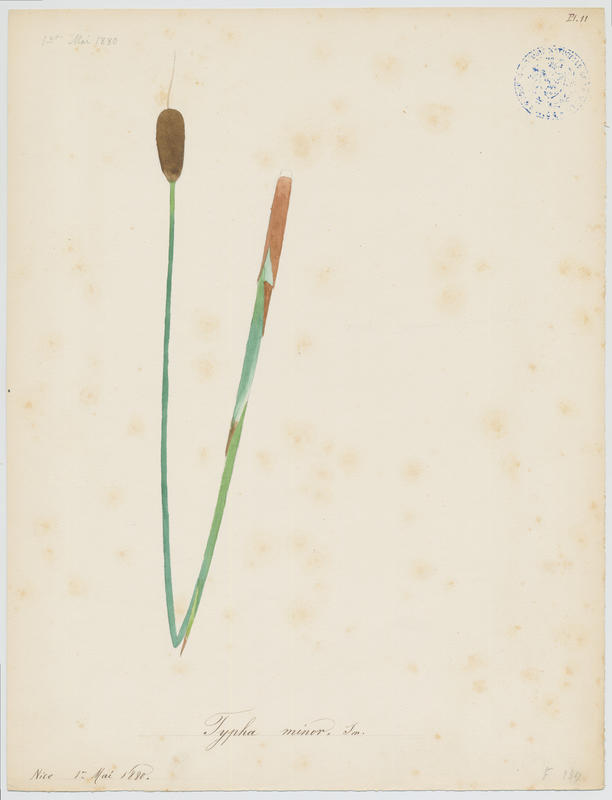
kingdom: Plantae
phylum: Tracheophyta
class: Liliopsida
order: Poales
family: Typhaceae
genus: Typha
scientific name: Typha minima
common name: Dwarf bulrush
